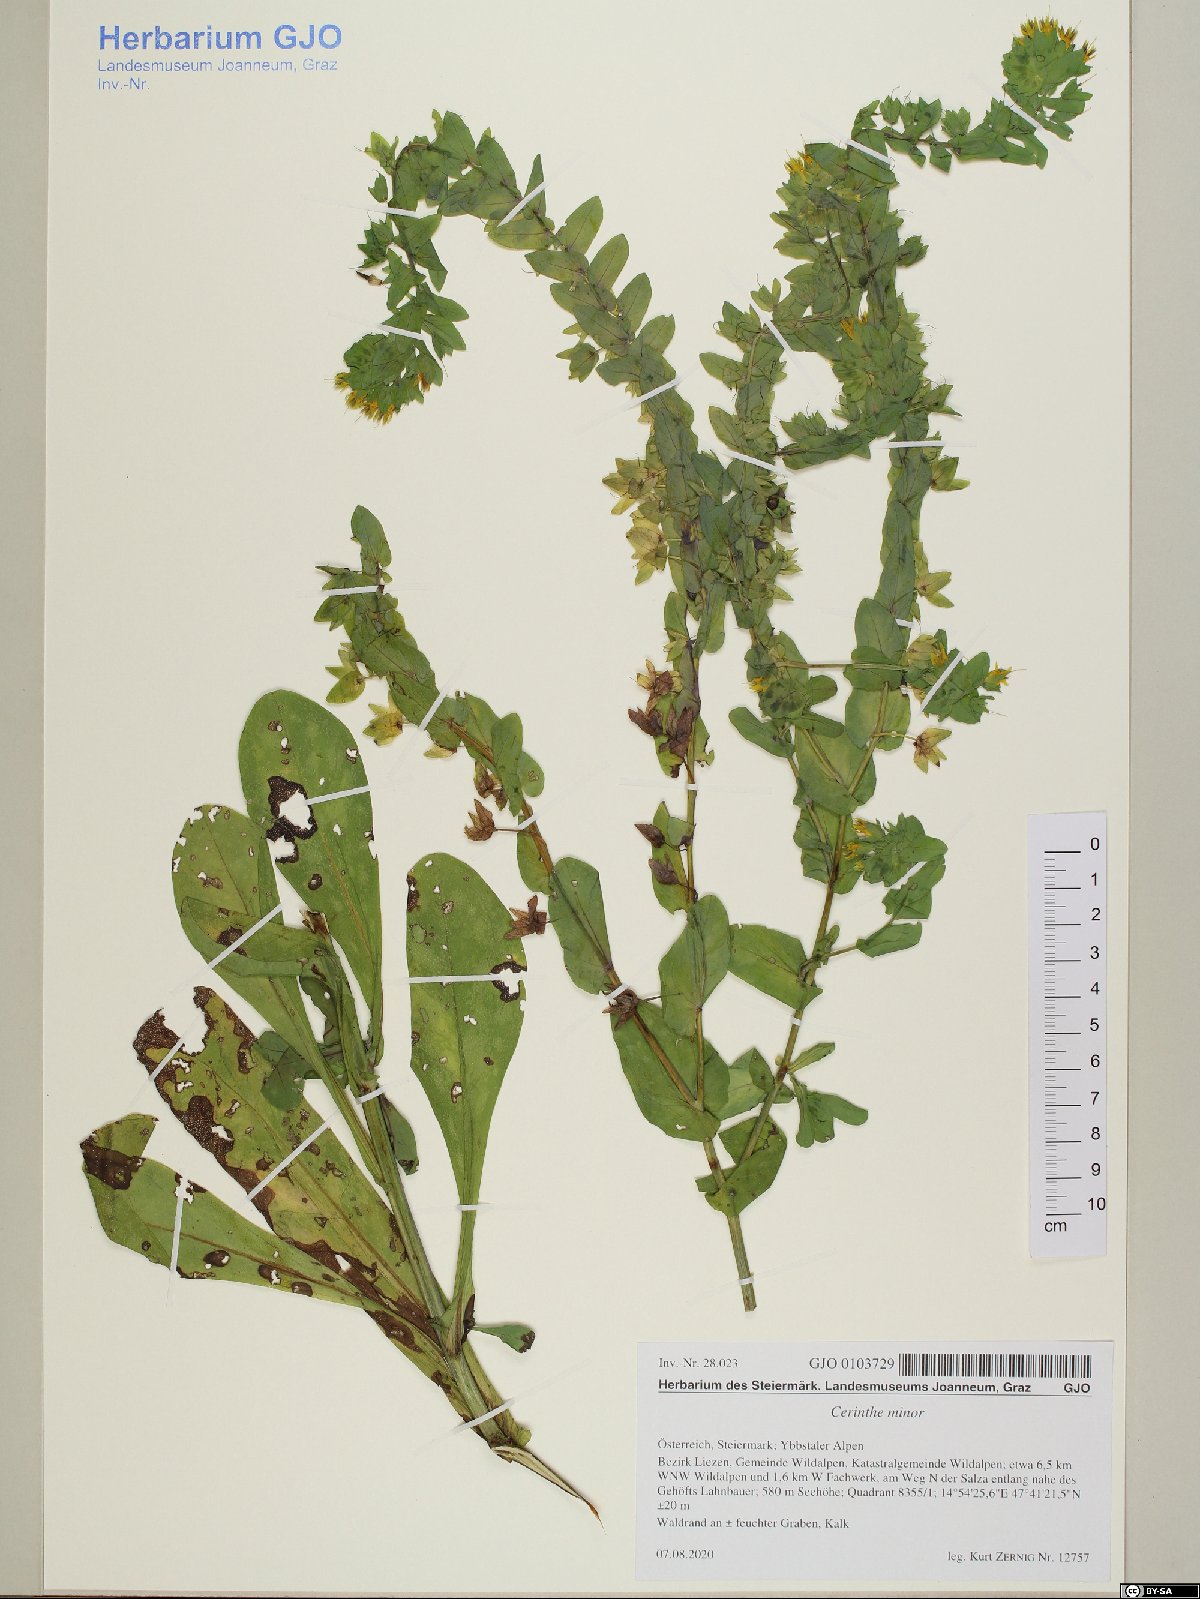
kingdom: Plantae
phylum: Tracheophyta
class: Magnoliopsida
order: Boraginales
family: Boraginaceae
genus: Cerinthe
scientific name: Cerinthe minor
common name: Lesser honeywort
